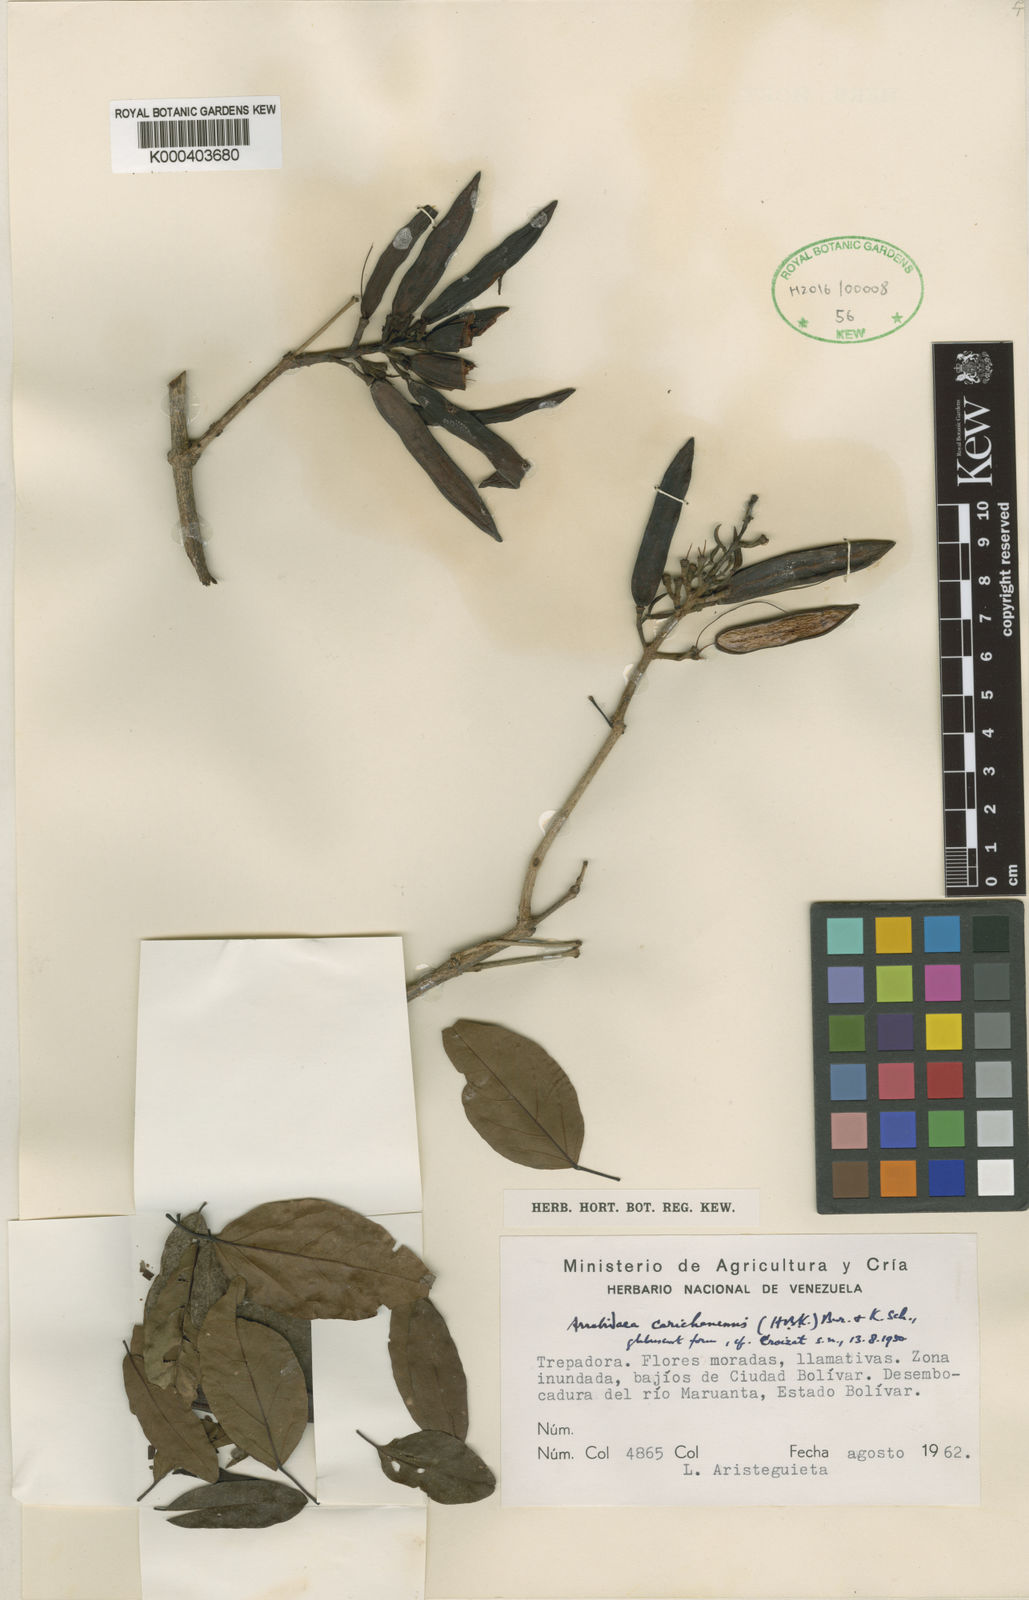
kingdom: Plantae
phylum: Tracheophyta
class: Magnoliopsida
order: Lamiales
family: Bignoniaceae
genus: Fridericia
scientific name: Fridericia carichanensis
